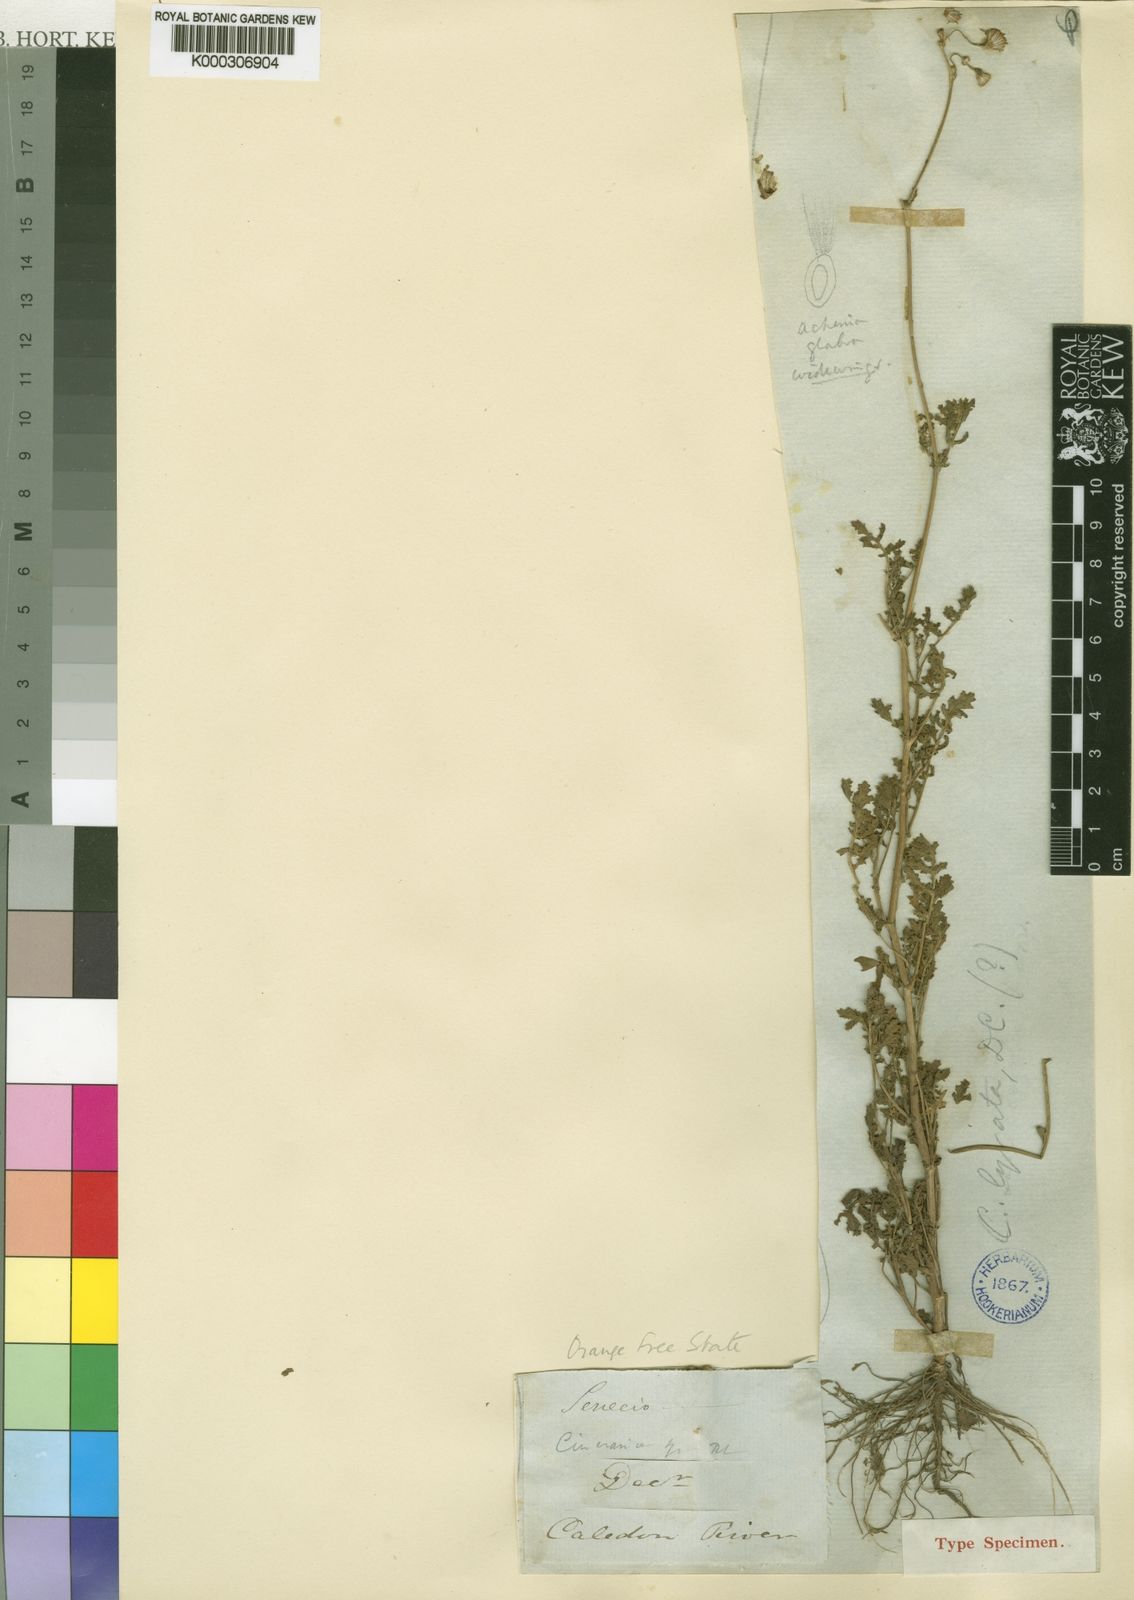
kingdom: Plantae
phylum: Tracheophyta
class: Magnoliopsida
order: Asterales
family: Asteraceae
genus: Cineraria
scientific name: Cineraria lyratiformis
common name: Cineraria
